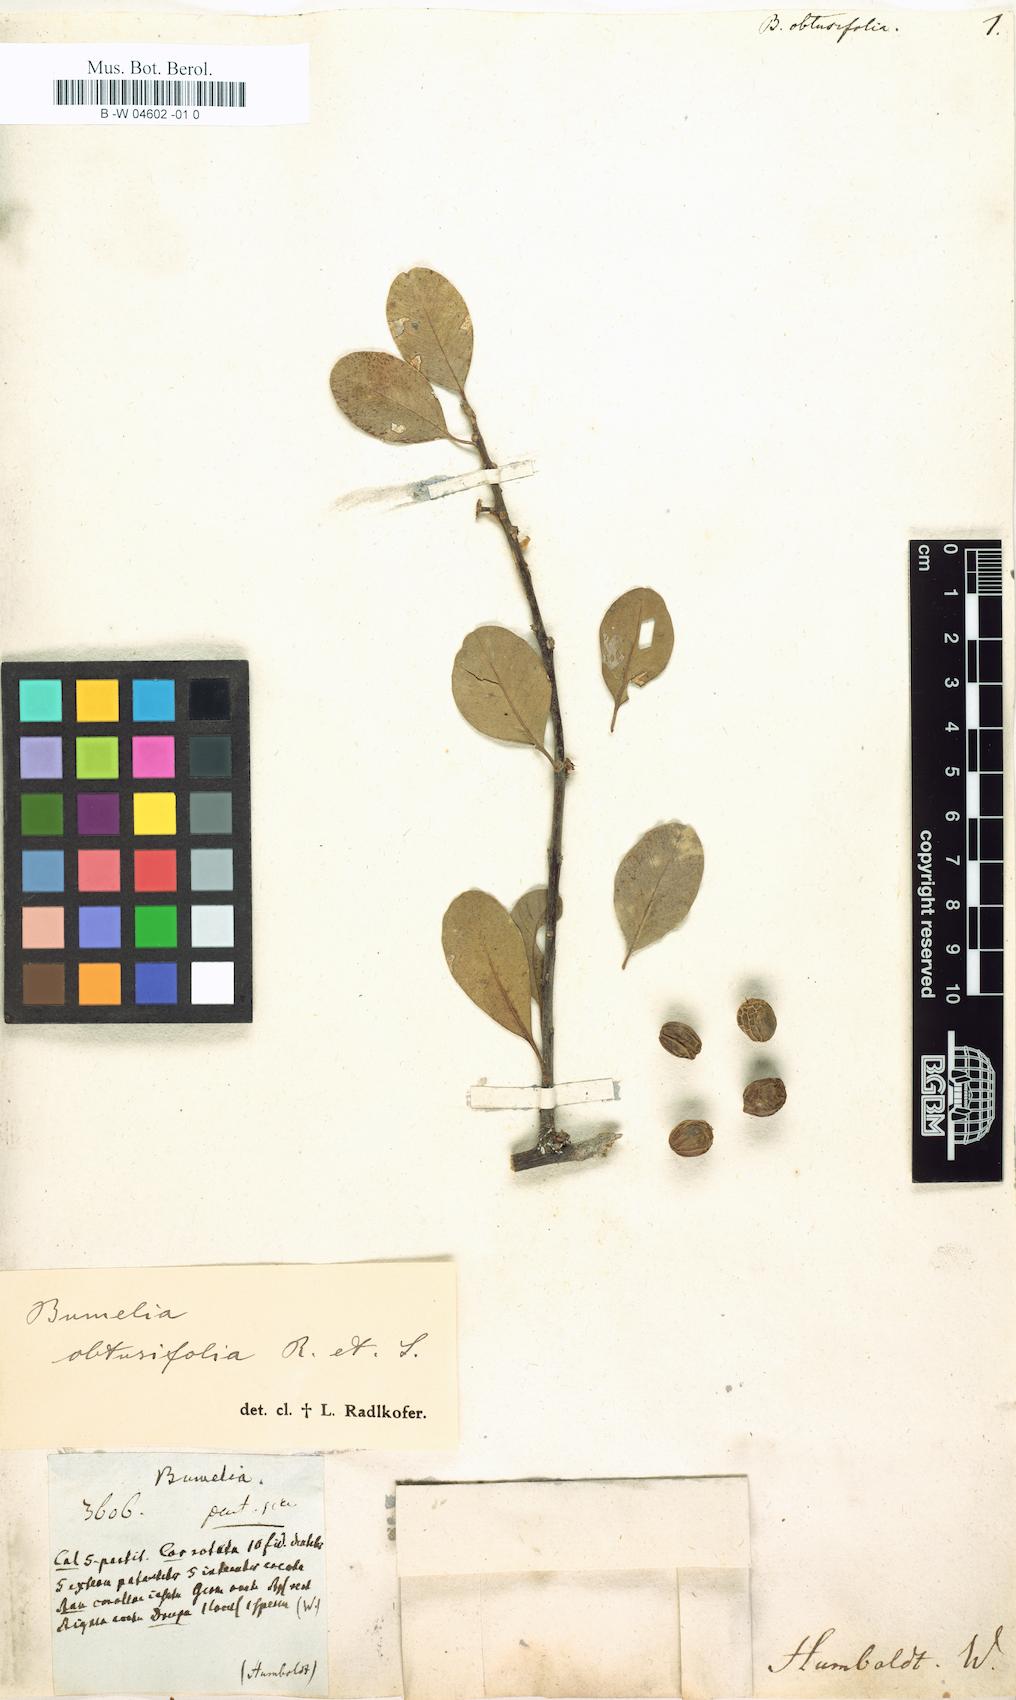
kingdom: Plantae
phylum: Tracheophyta
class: Magnoliopsida
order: Ericales
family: Sapotaceae
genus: Sideroxylon
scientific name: Sideroxylon
